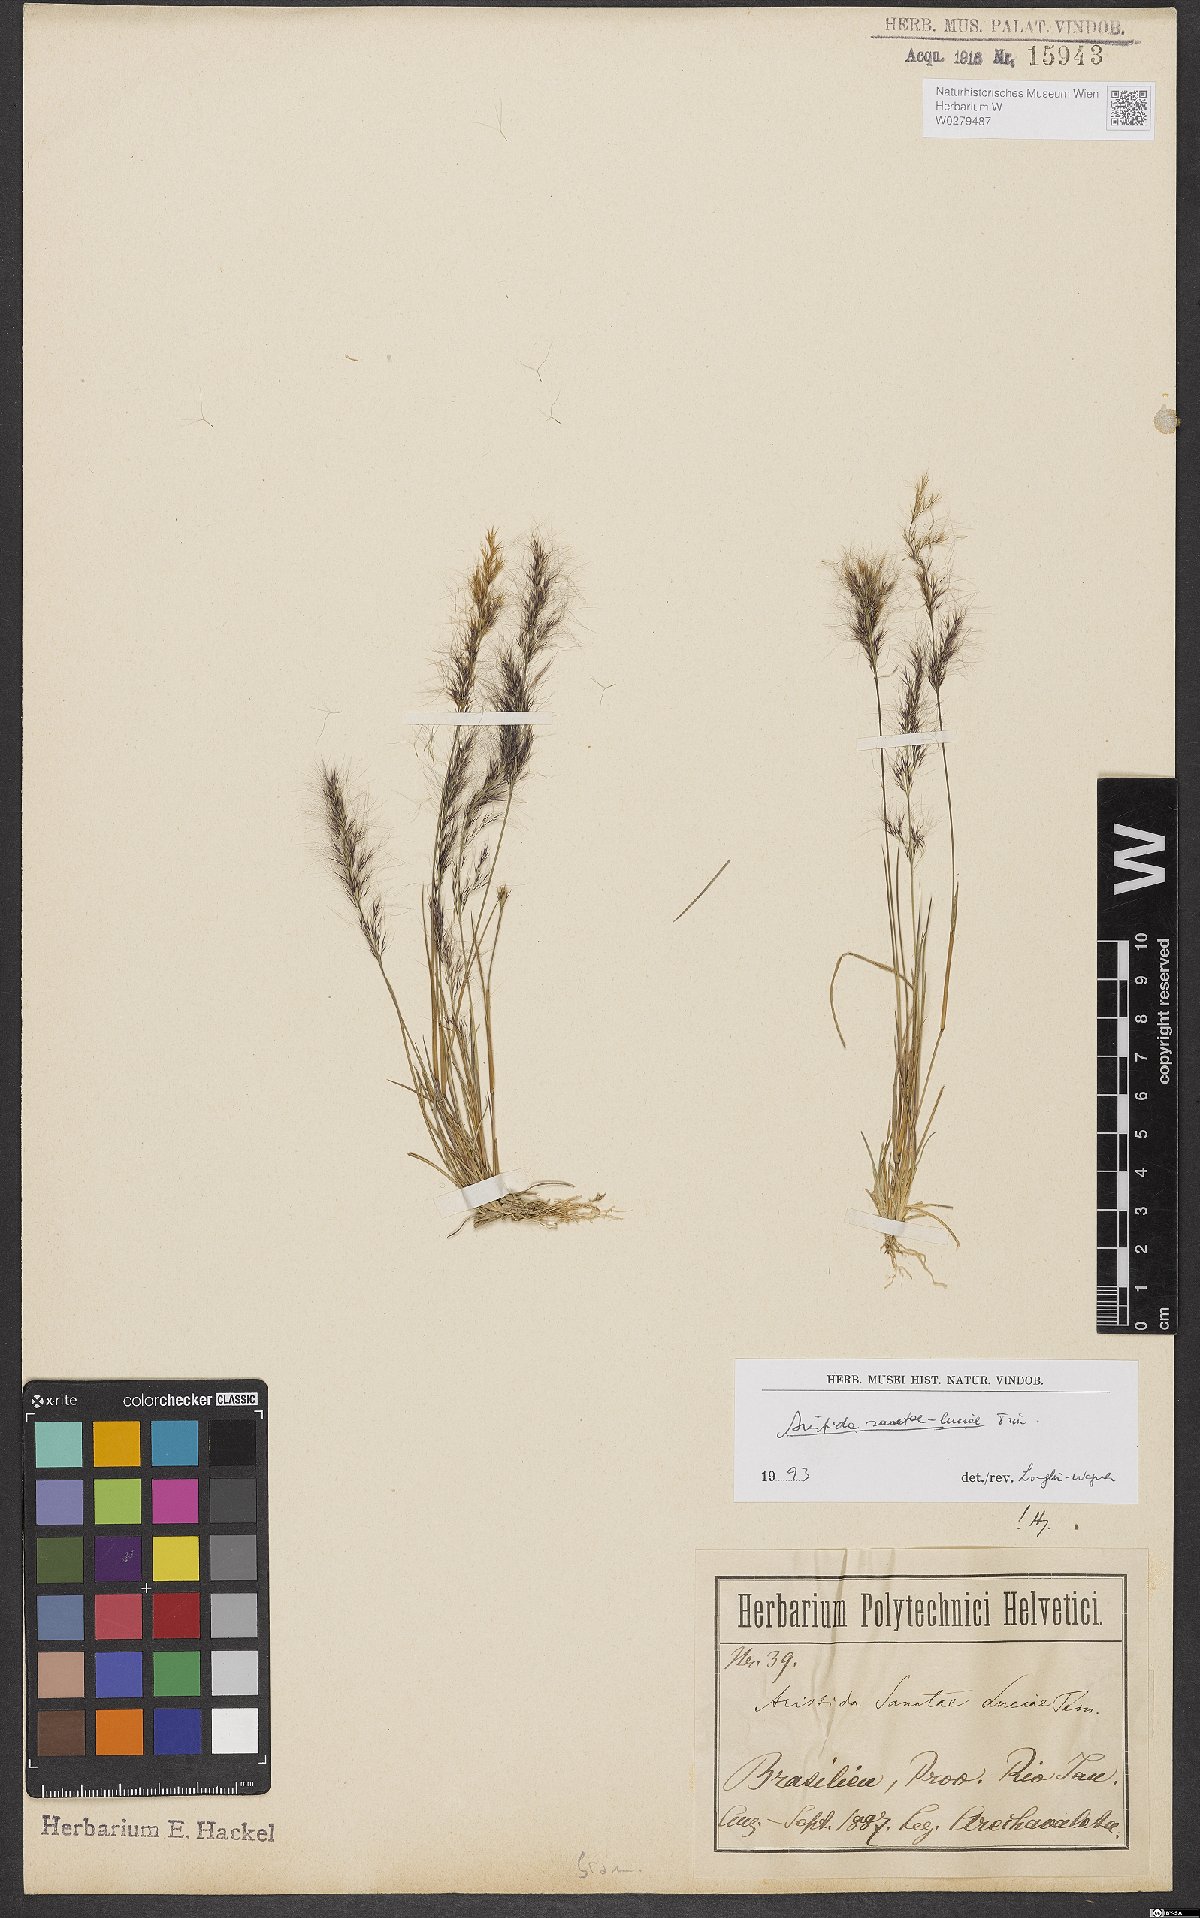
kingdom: Plantae
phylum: Tracheophyta
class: Liliopsida
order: Poales
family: Poaceae
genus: Aristida
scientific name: Aristida sanctae-luciae
